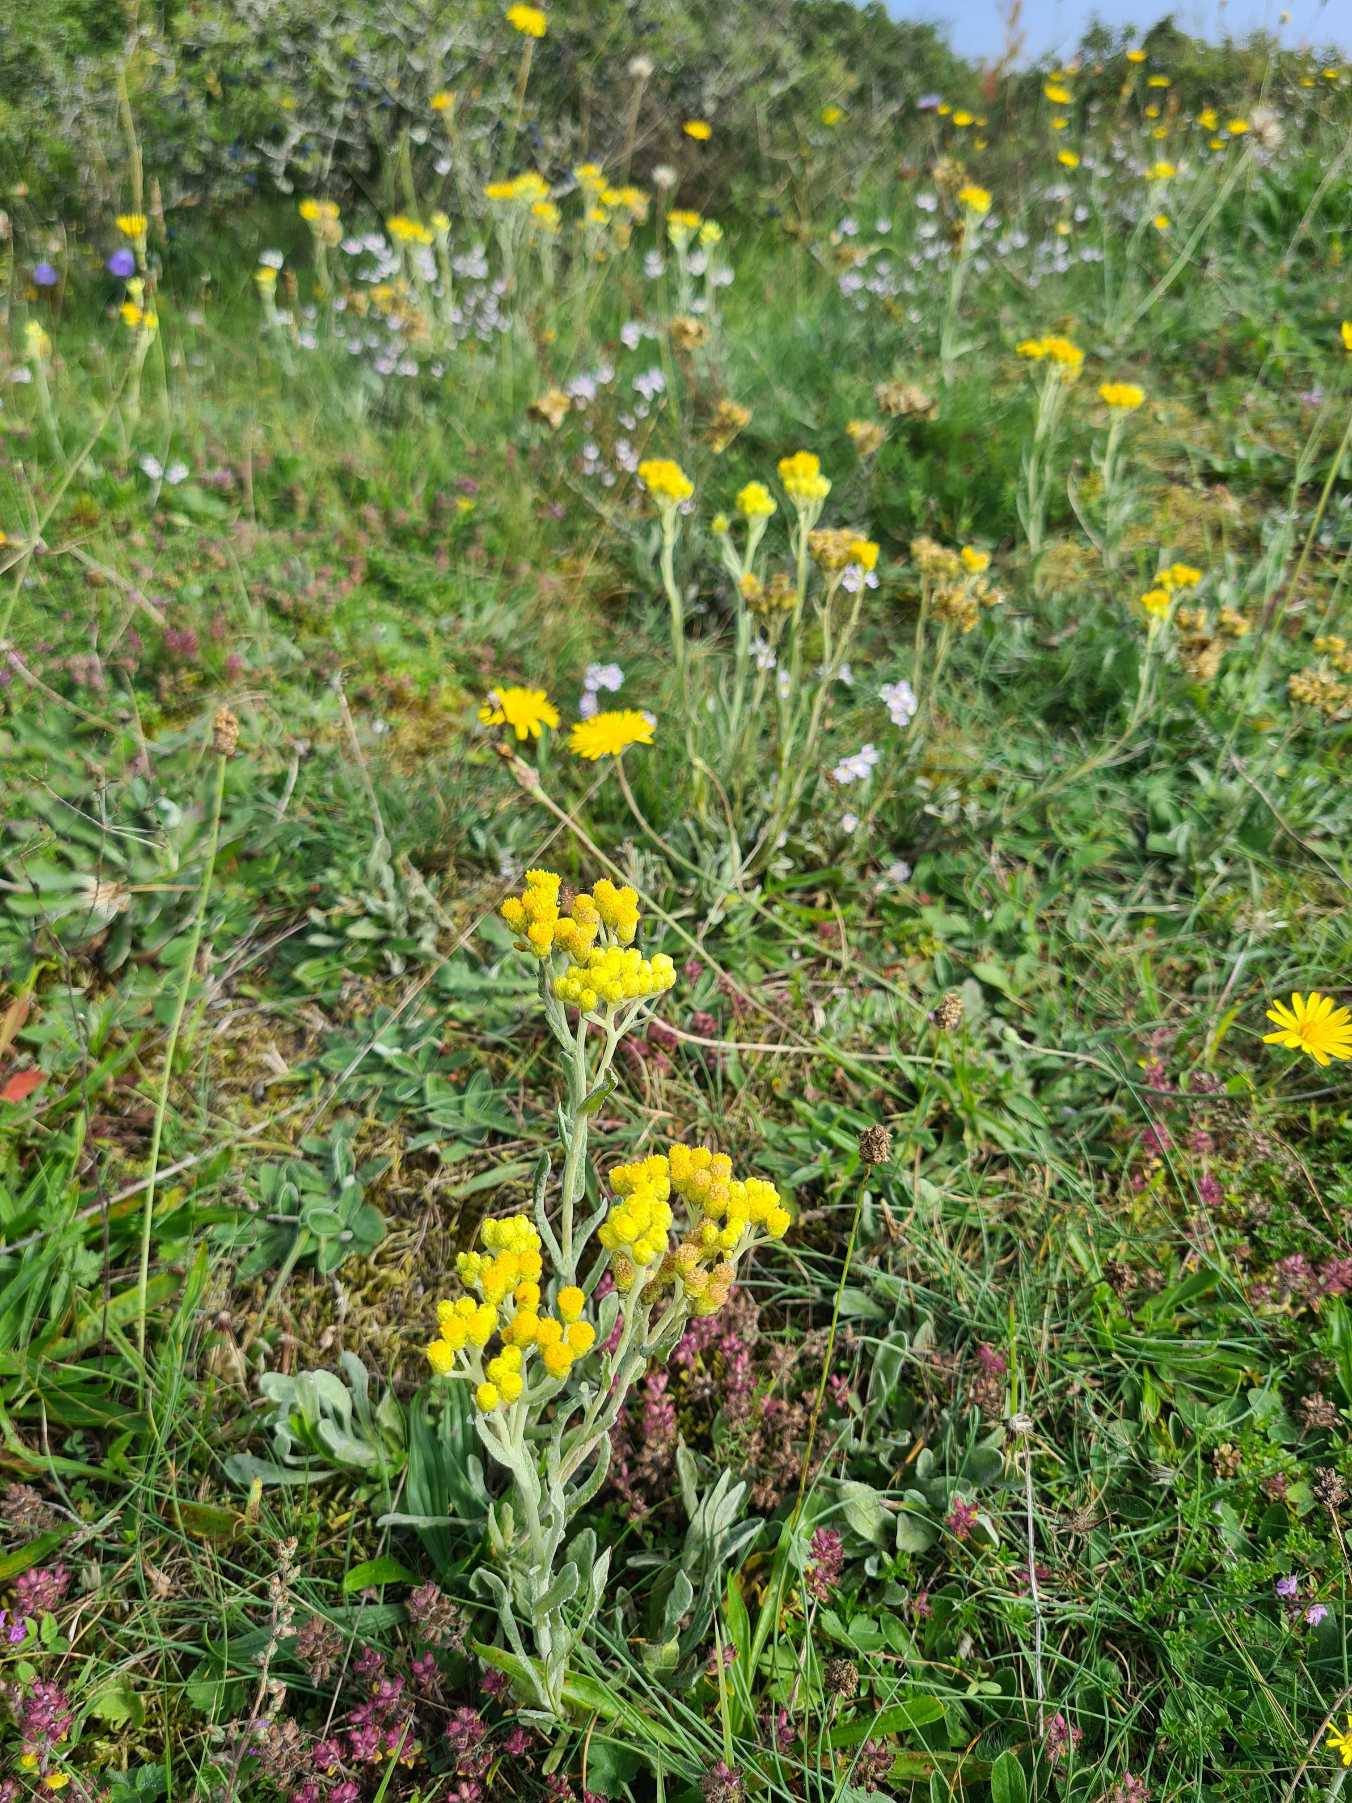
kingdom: Plantae
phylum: Tracheophyta
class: Magnoliopsida
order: Asterales
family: Asteraceae
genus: Helichrysum
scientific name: Helichrysum arenarium
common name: Gul evighedsblomst
